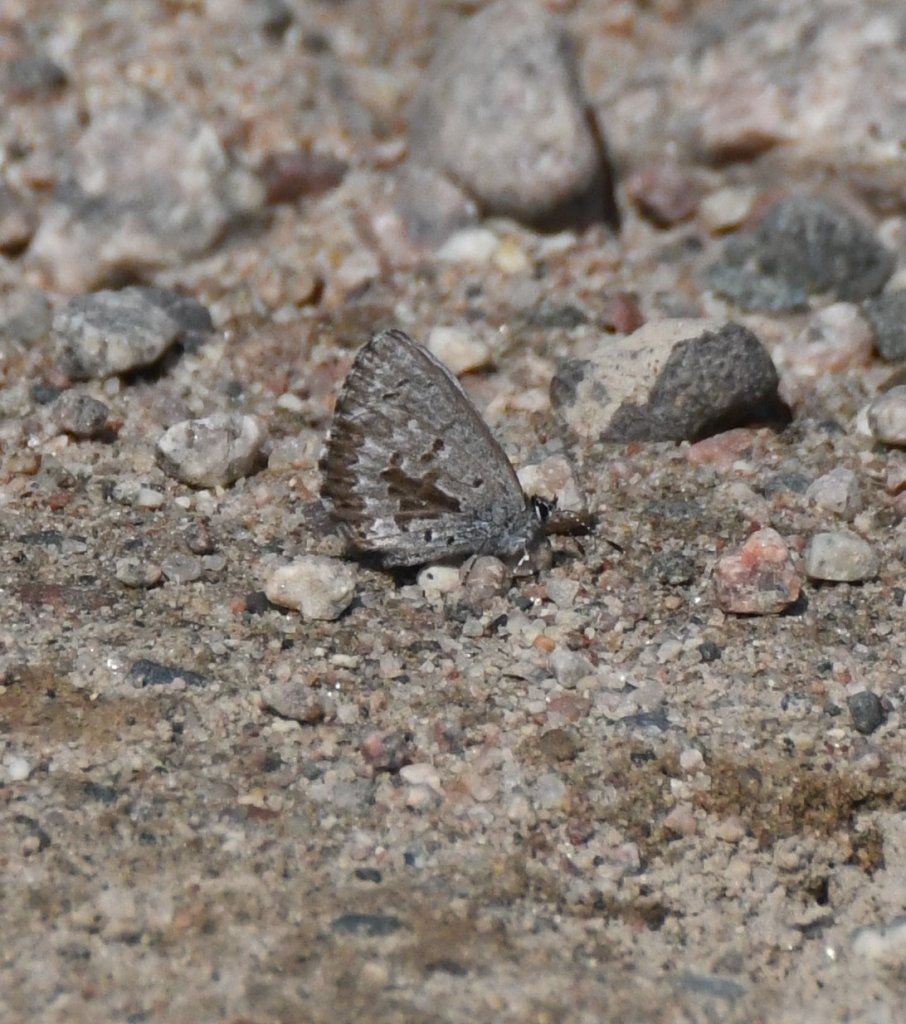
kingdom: Animalia
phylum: Arthropoda
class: Insecta
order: Lepidoptera
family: Lycaenidae
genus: Celastrina
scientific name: Celastrina lucia
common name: Northern Spring Azure
